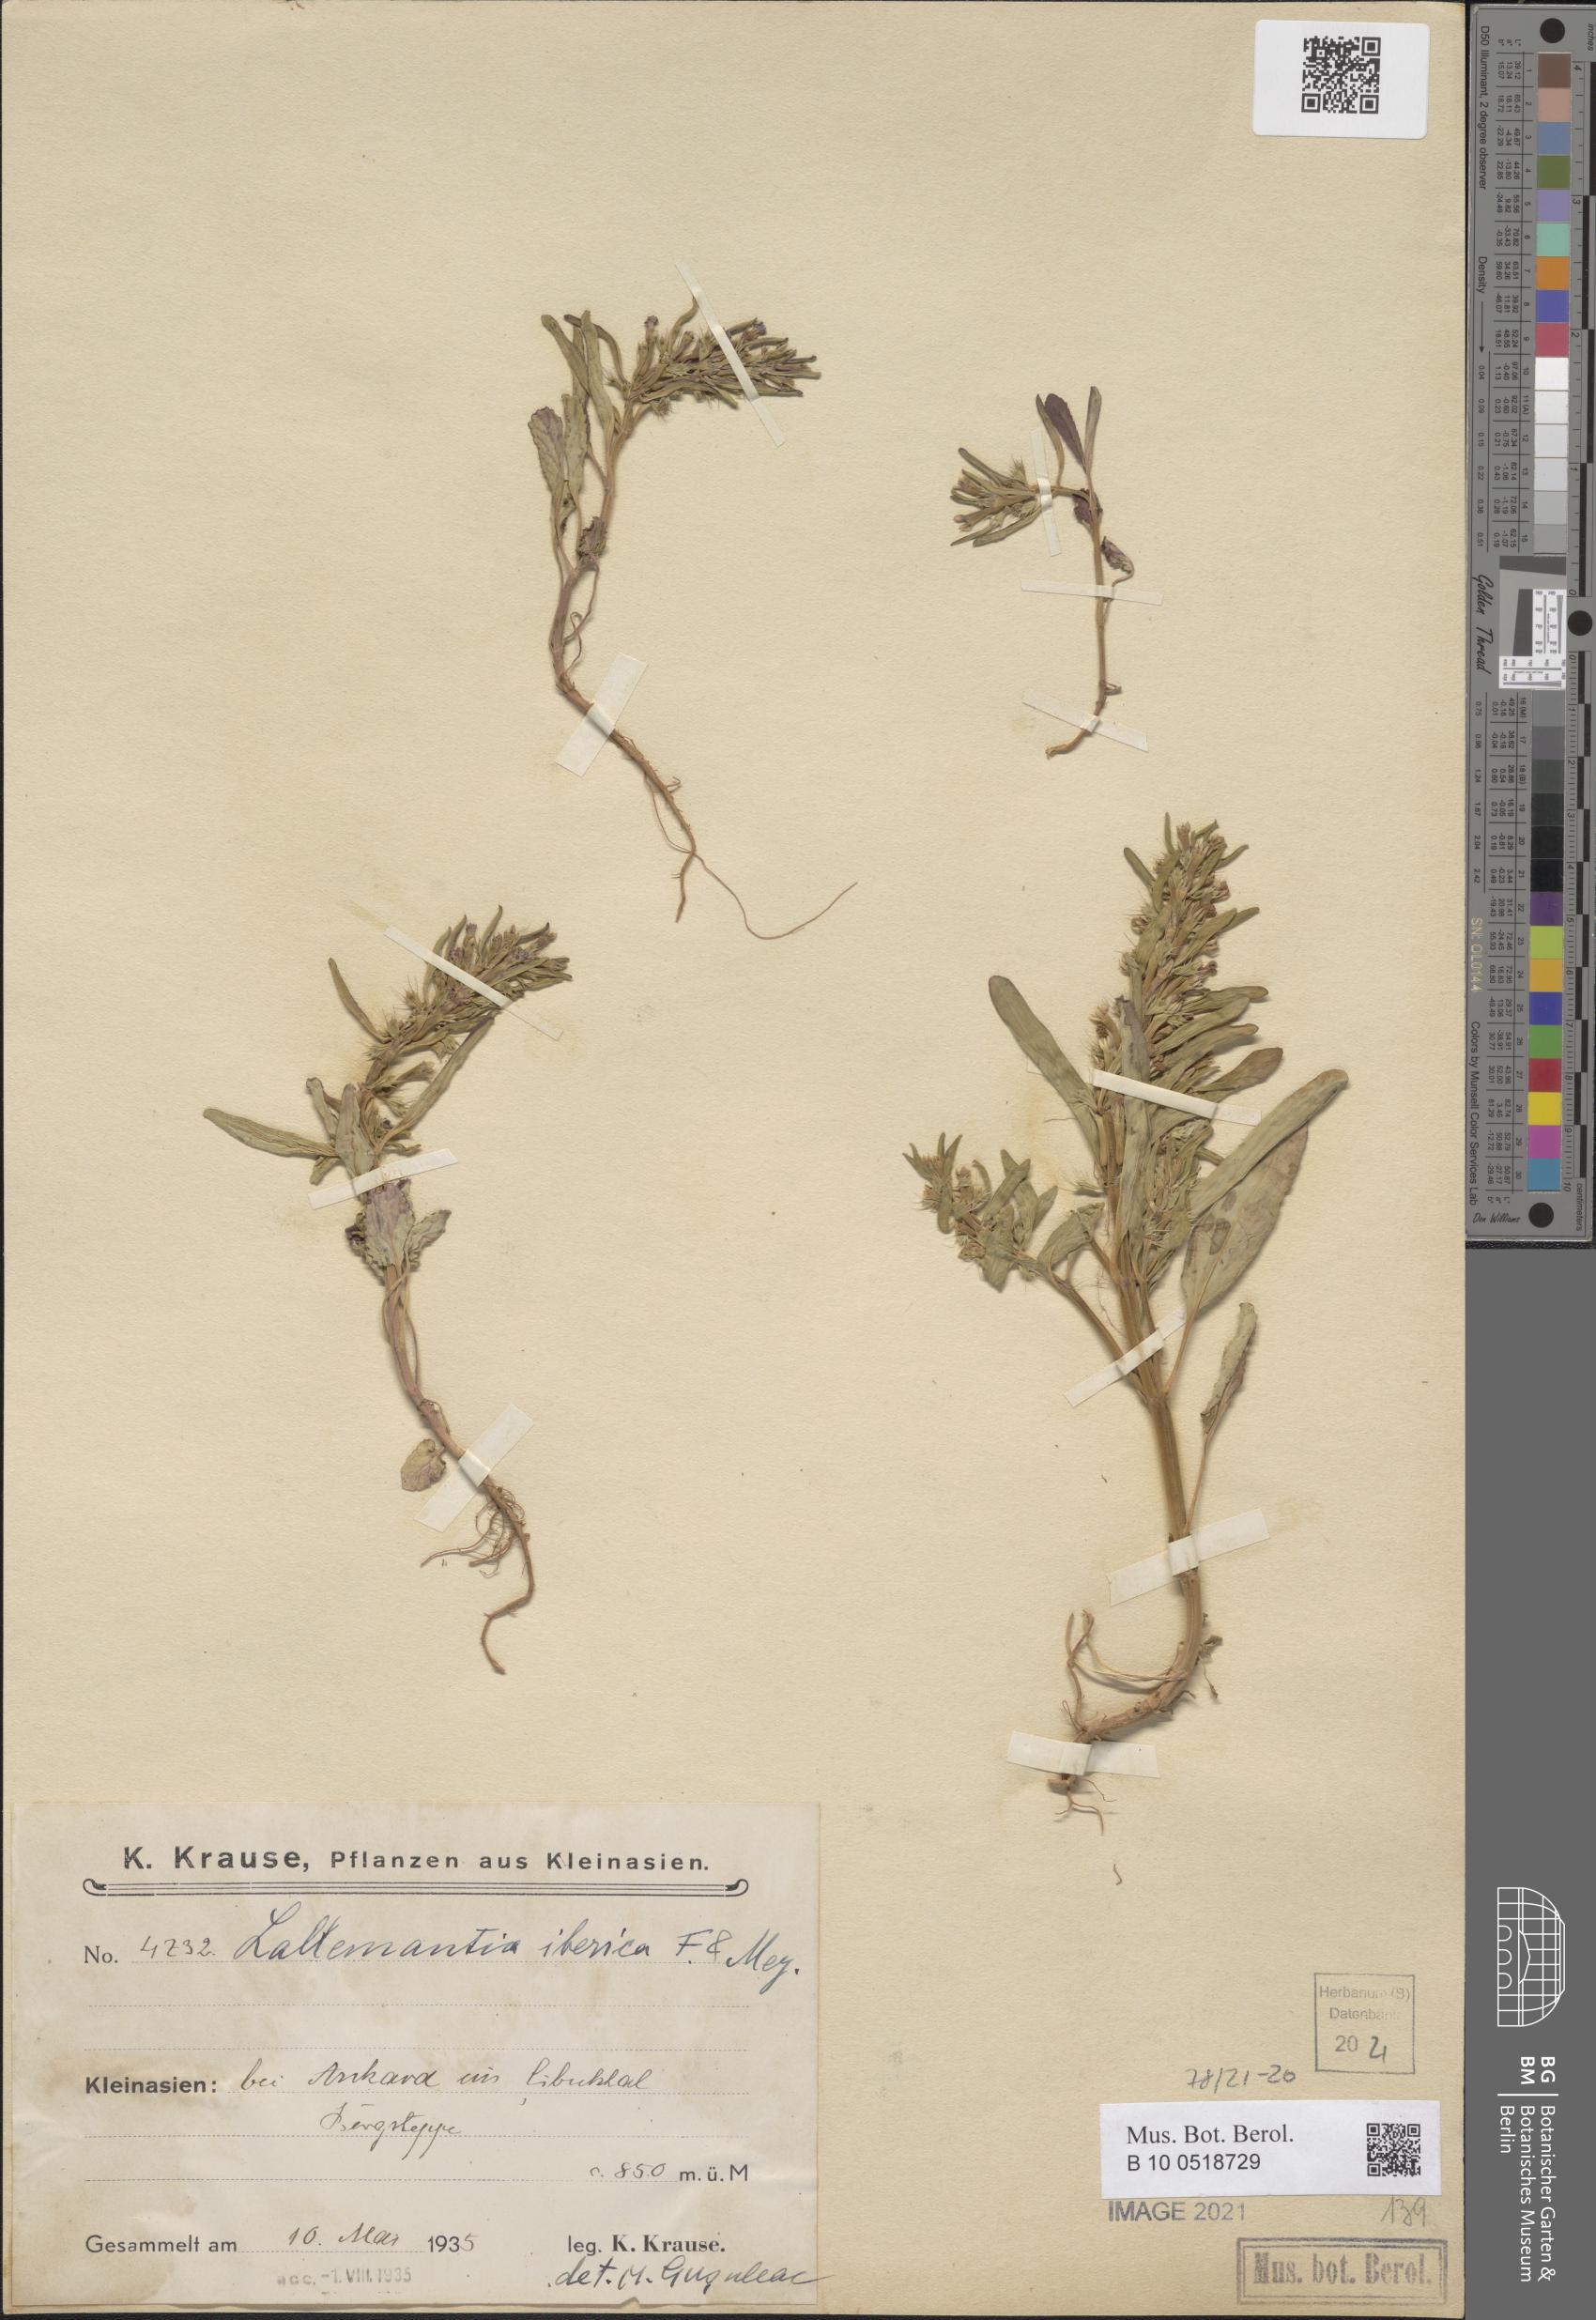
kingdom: Plantae
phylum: Tracheophyta
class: Magnoliopsida
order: Lamiales
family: Lamiaceae
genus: Lallemantia
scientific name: Lallemantia iberica
